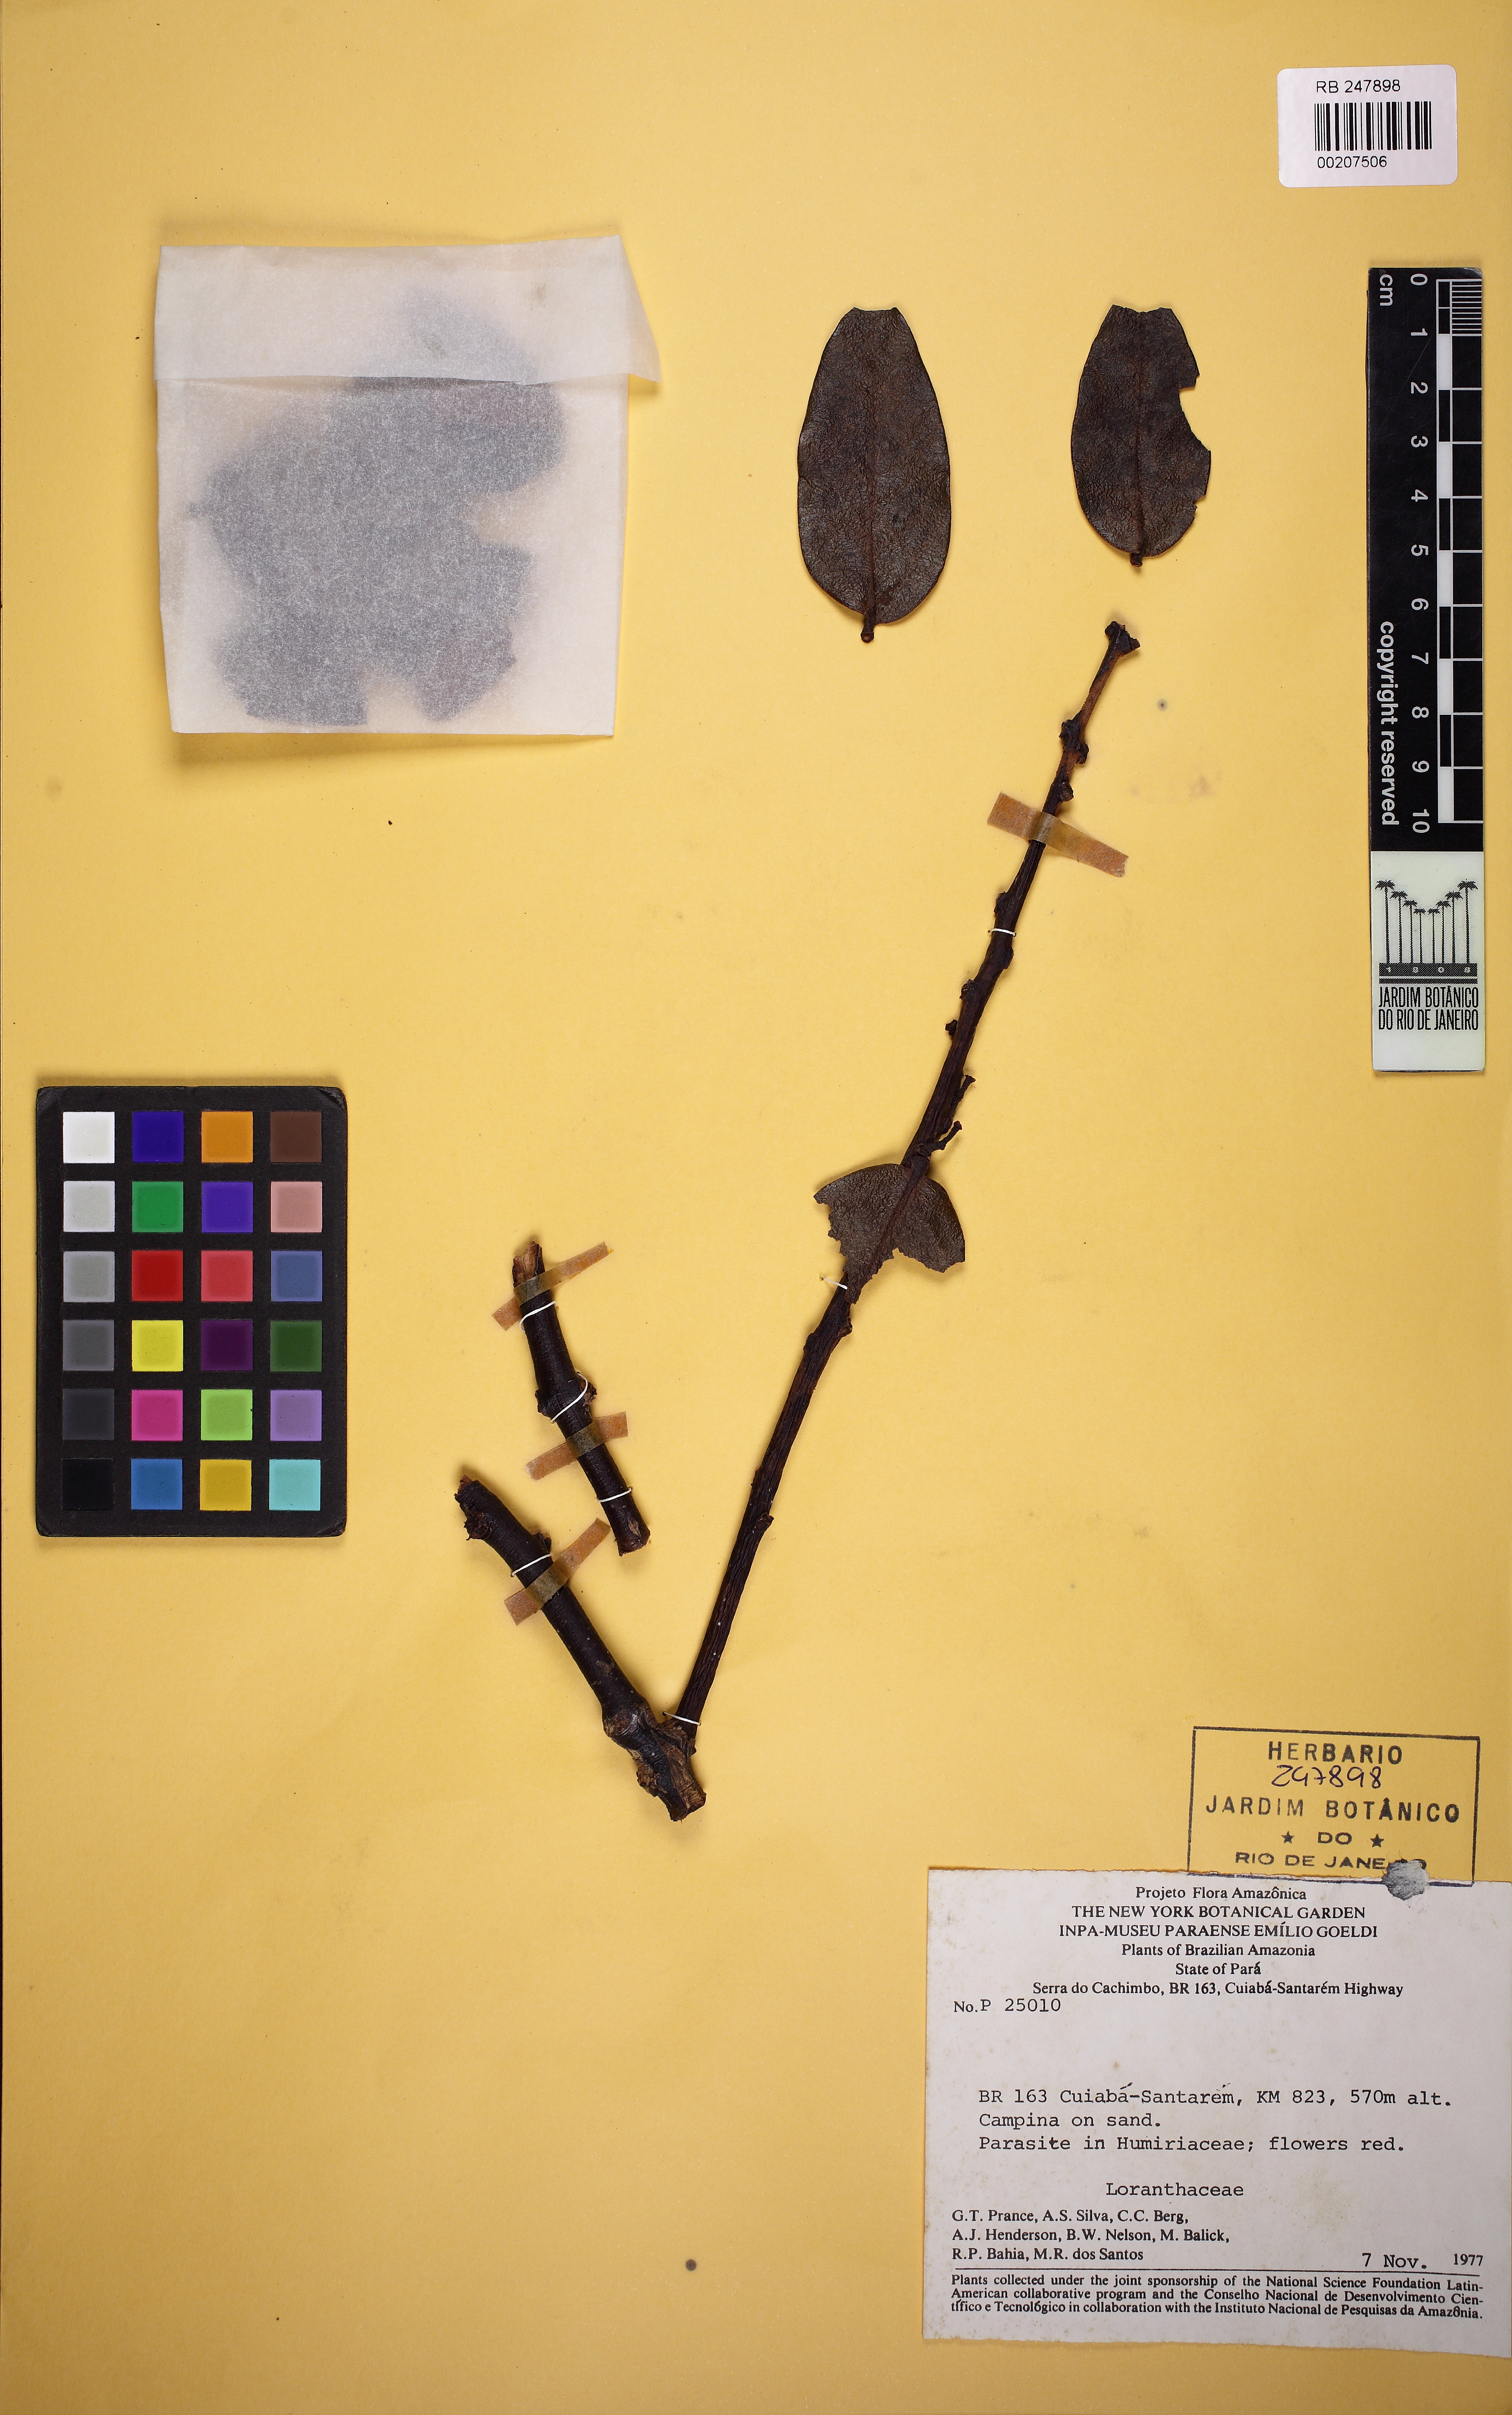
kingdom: Plantae
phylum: Tracheophyta
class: Magnoliopsida
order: Santalales
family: Loranthaceae
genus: Psittacanthus
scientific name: Psittacanthus
